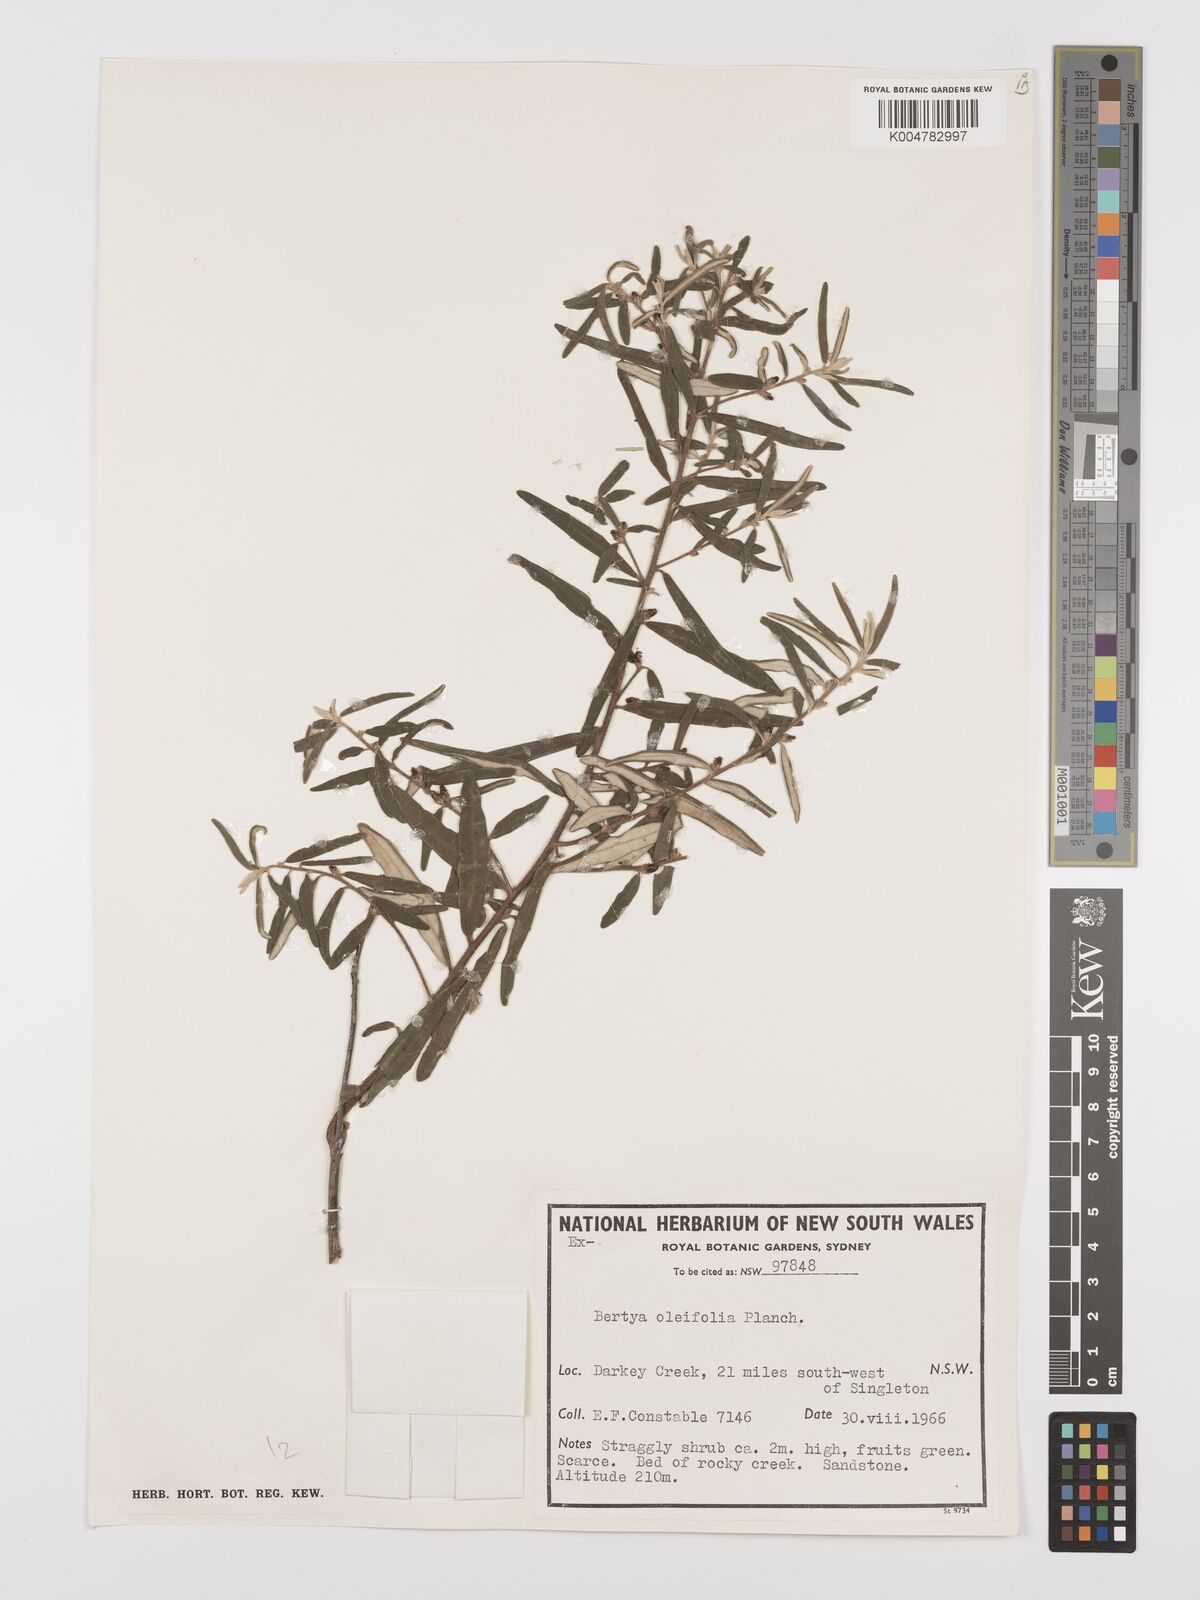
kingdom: Plantae
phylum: Tracheophyta
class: Magnoliopsida
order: Malpighiales
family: Euphorbiaceae
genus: Bertya
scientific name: Bertya oleifolia
